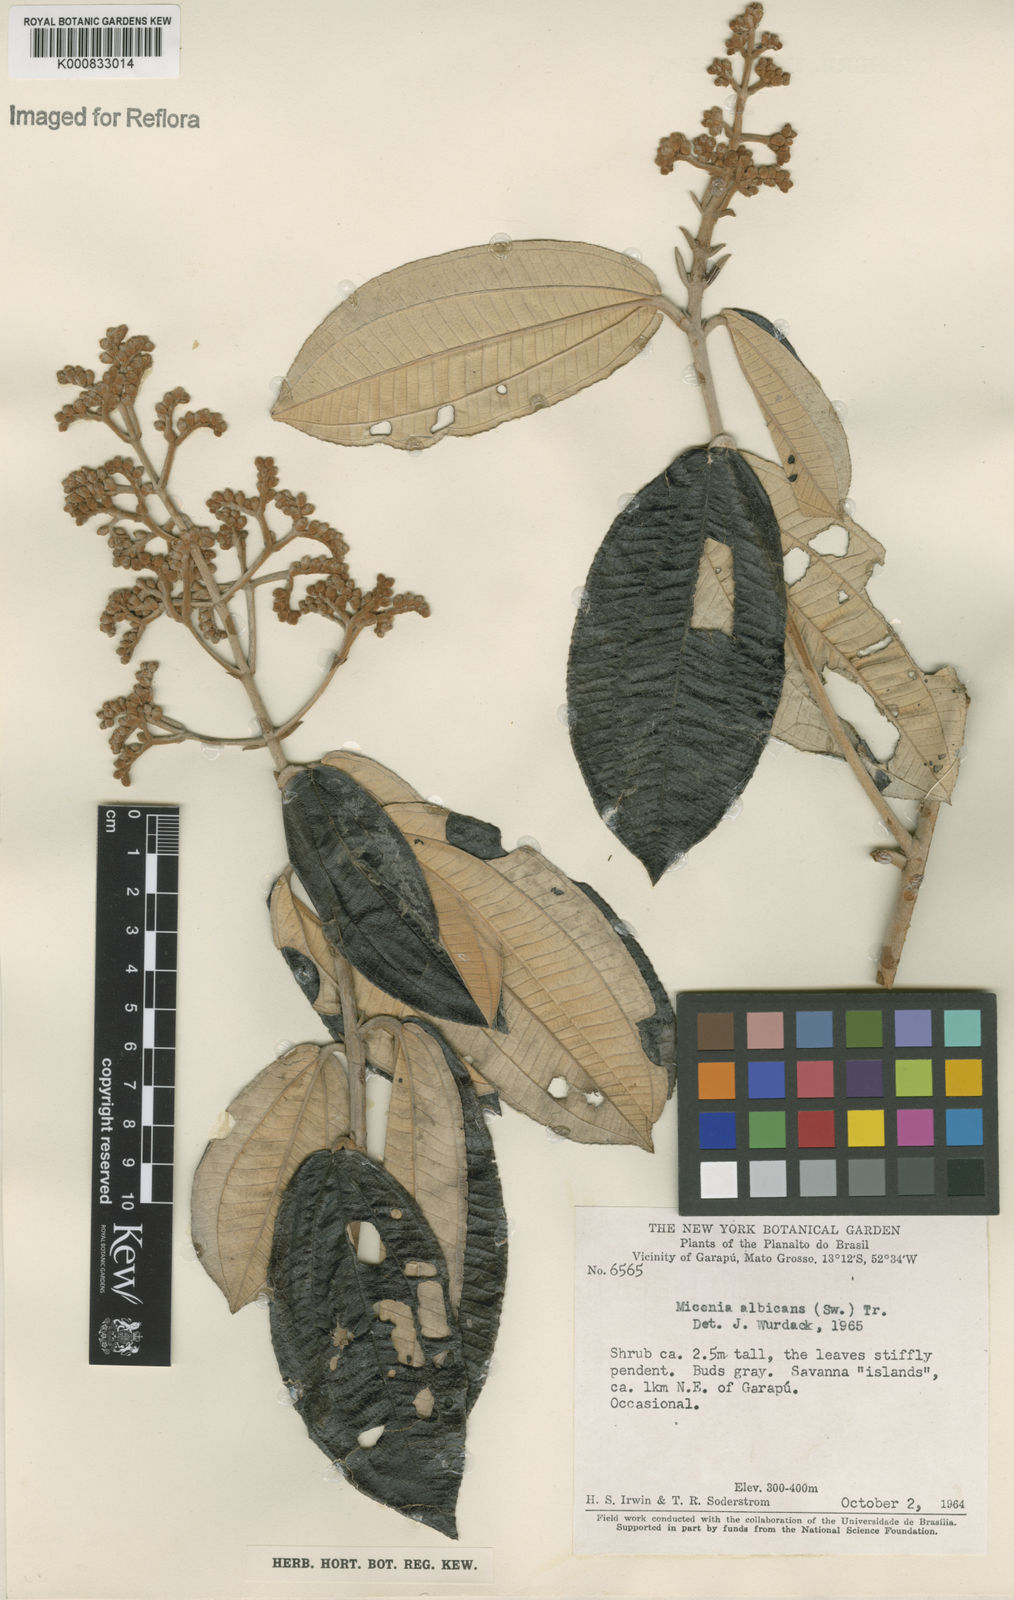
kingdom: Plantae
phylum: Tracheophyta
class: Magnoliopsida
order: Myrtales
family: Melastomataceae
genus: Miconia
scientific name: Miconia albicans
